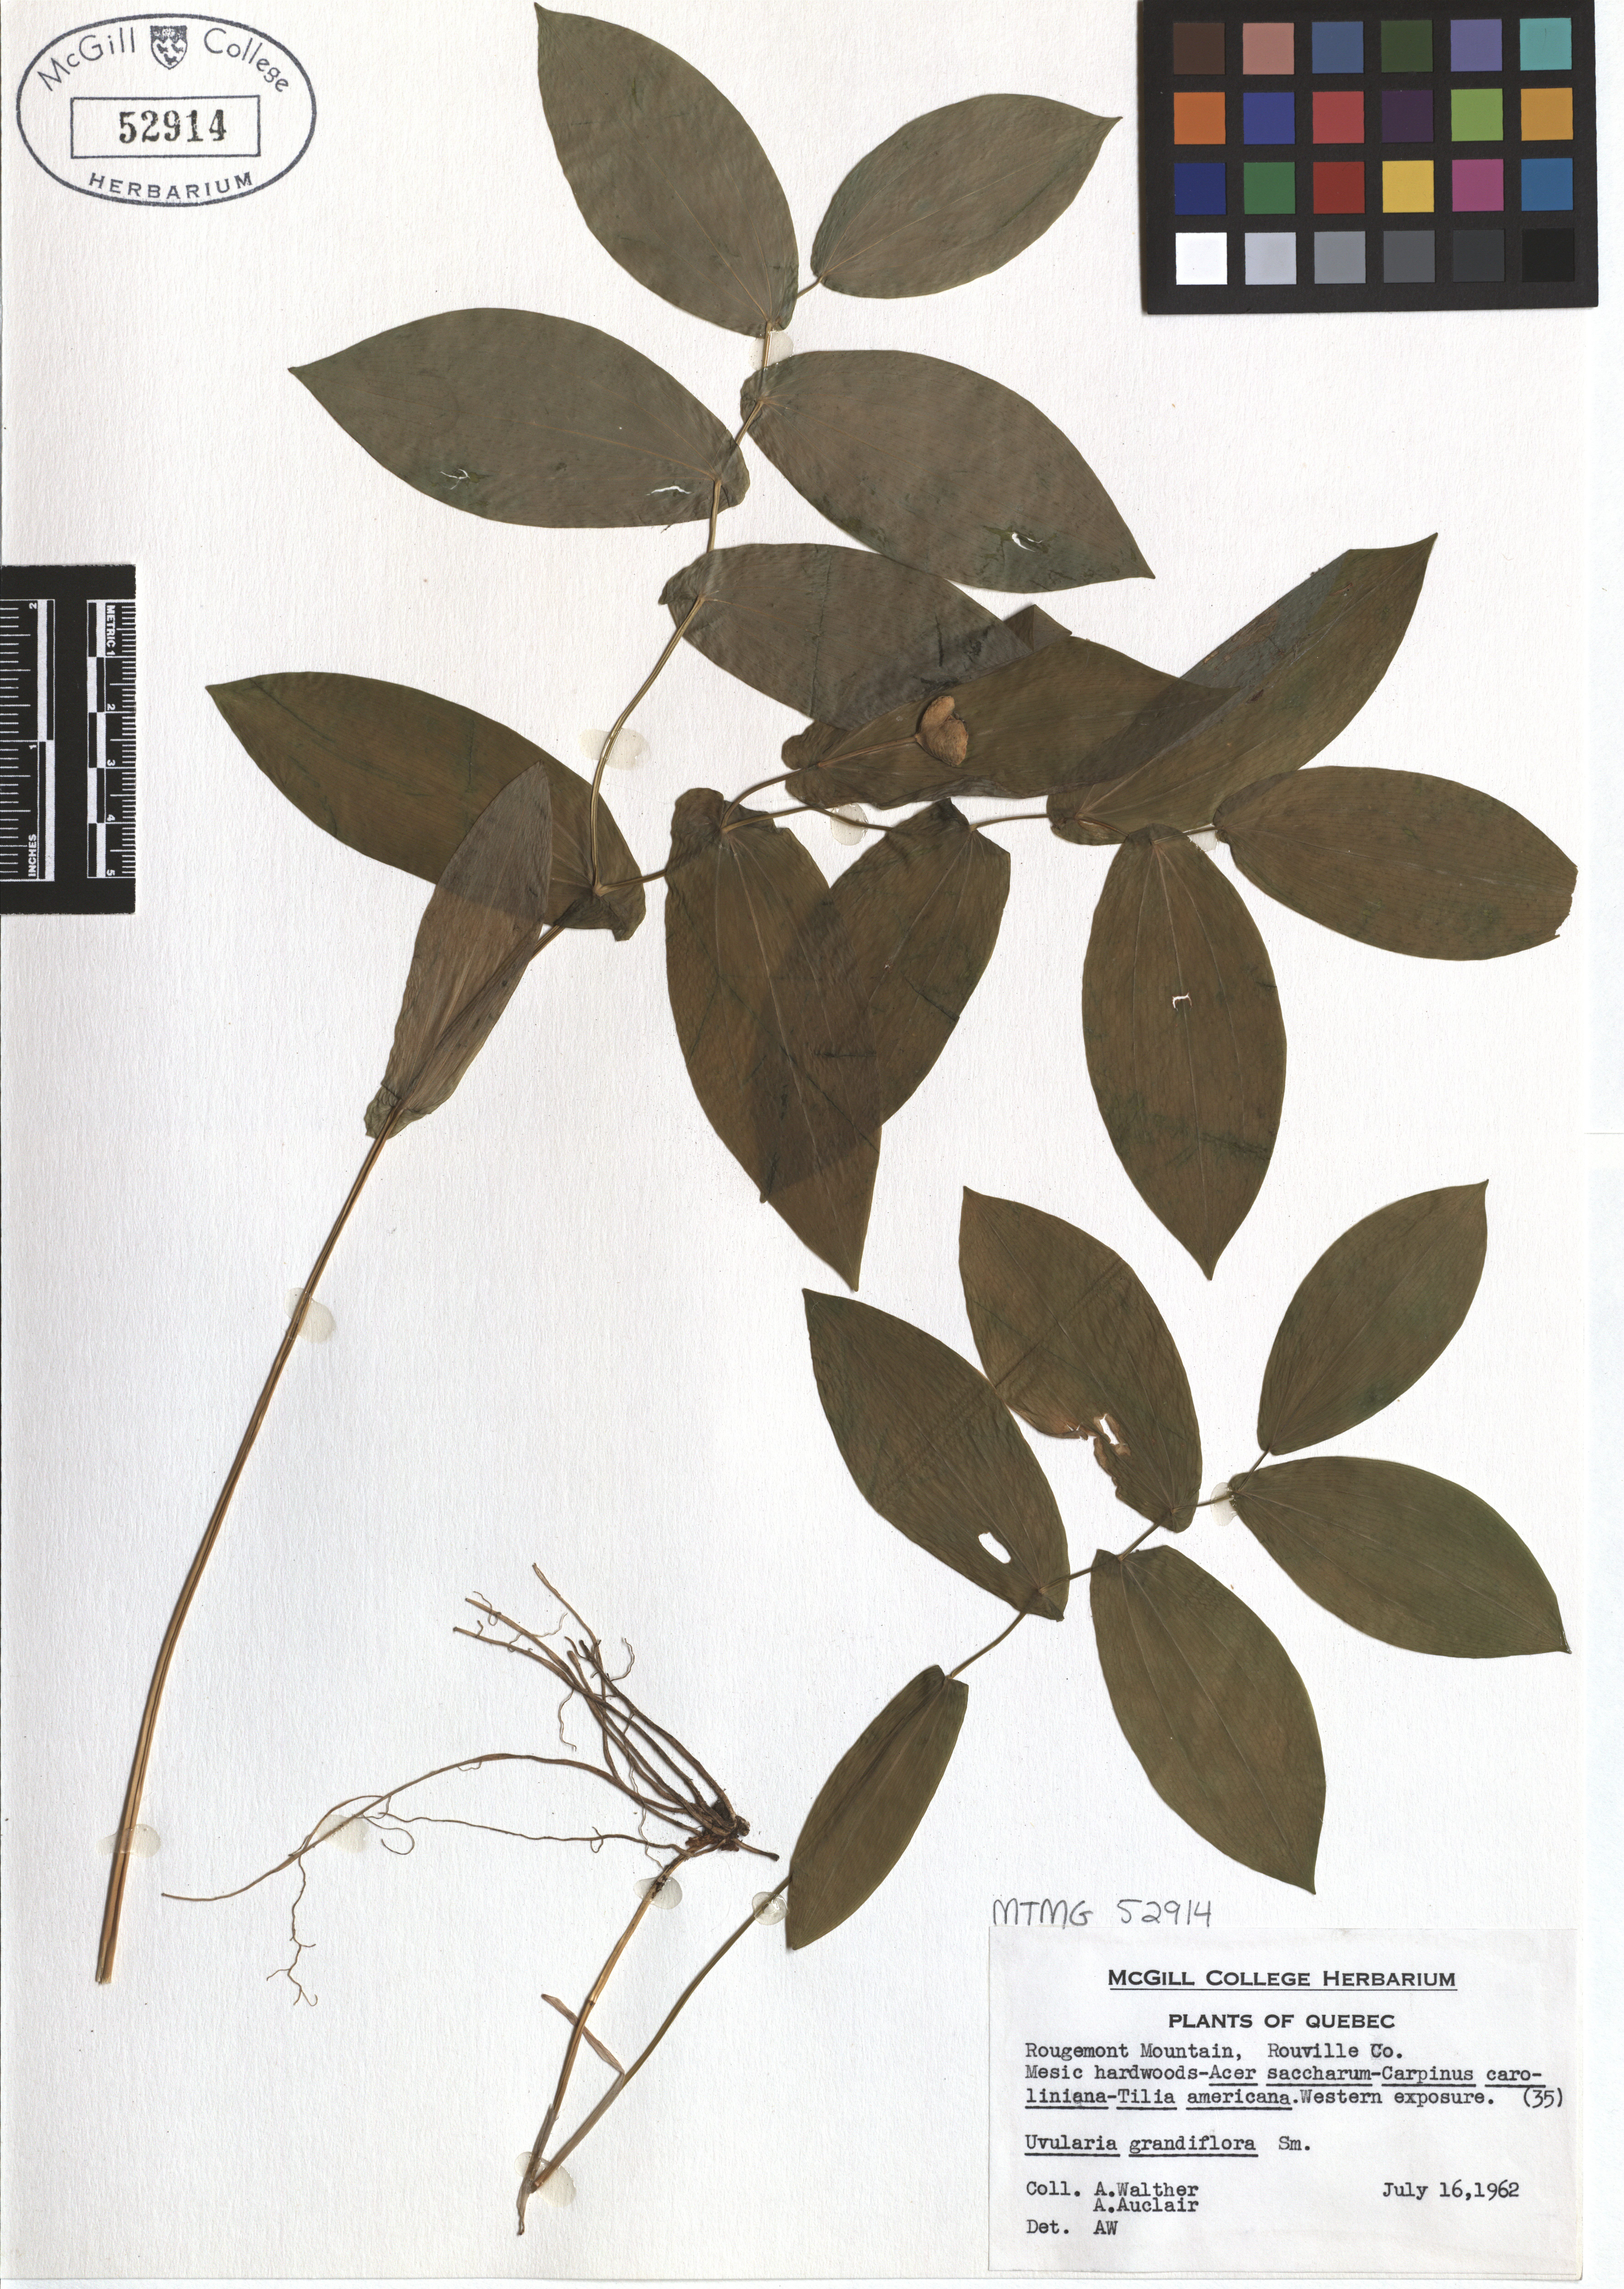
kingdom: Plantae
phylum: Tracheophyta
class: Liliopsida
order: Liliales
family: Colchicaceae
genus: Uvularia
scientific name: Uvularia grandiflora
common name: Bellwort
